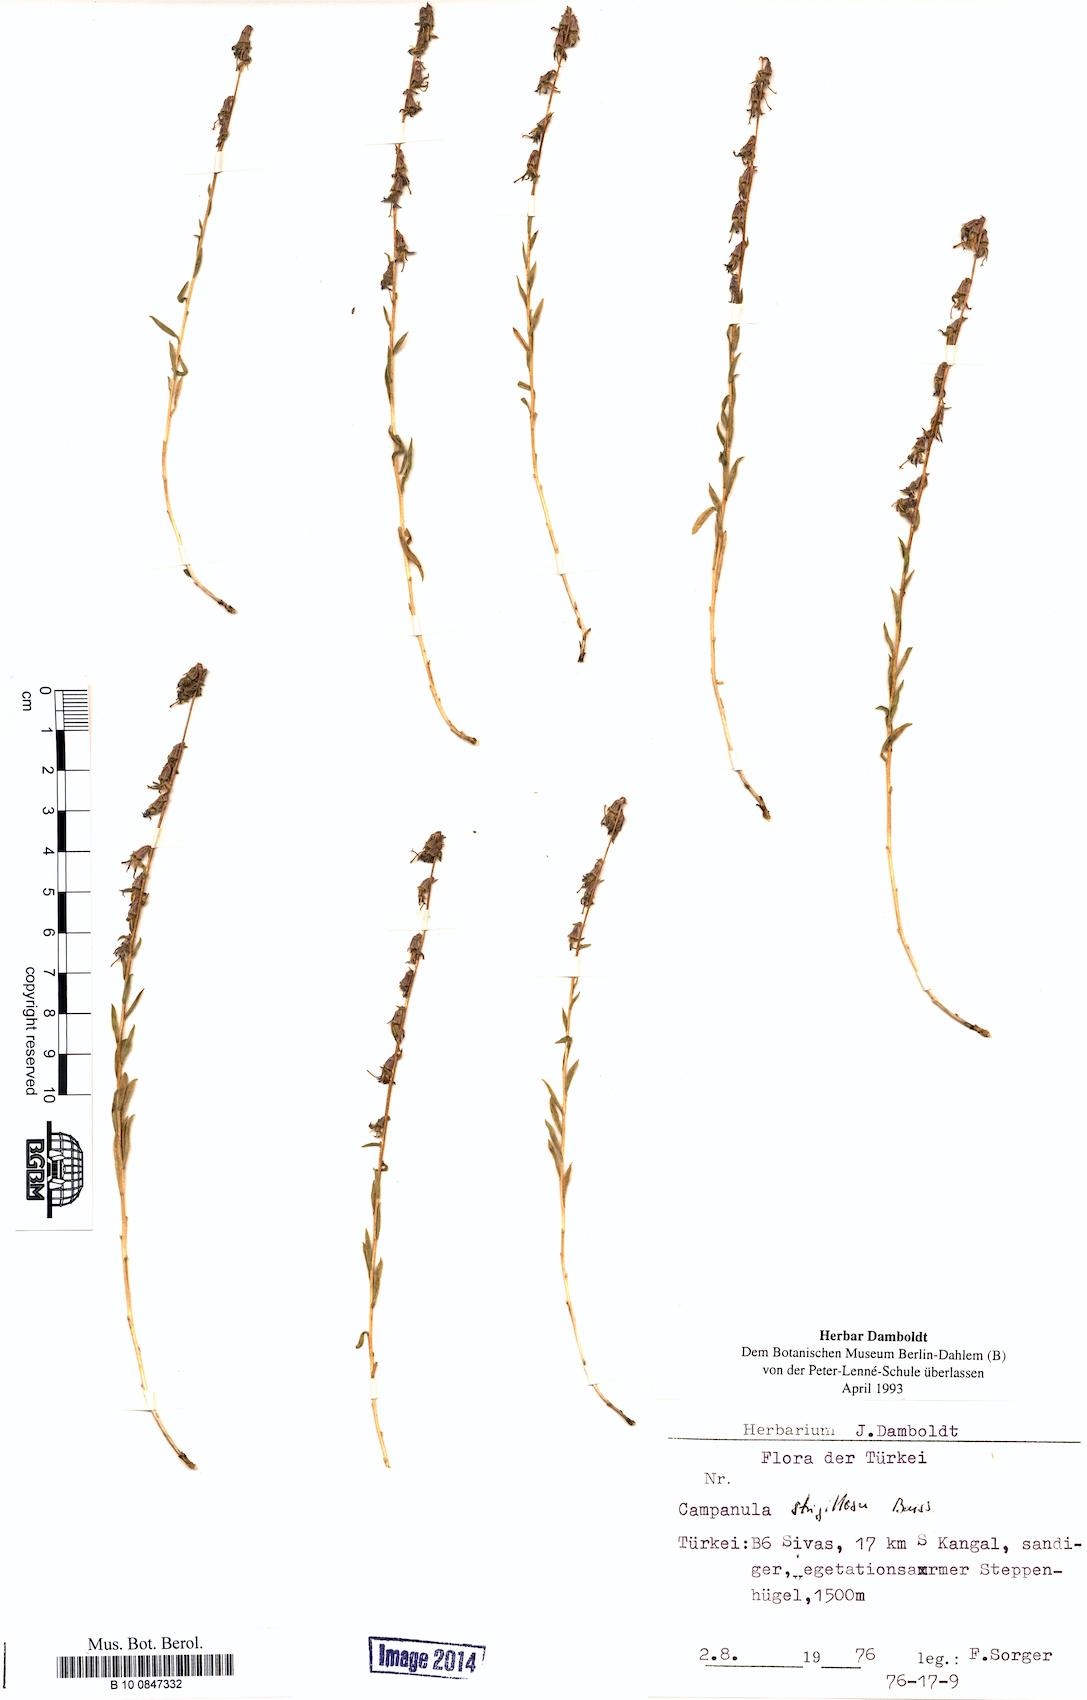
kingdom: Plantae
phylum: Tracheophyta
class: Magnoliopsida
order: Asterales
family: Campanulaceae
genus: Campanula
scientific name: Campanula strigillosa
